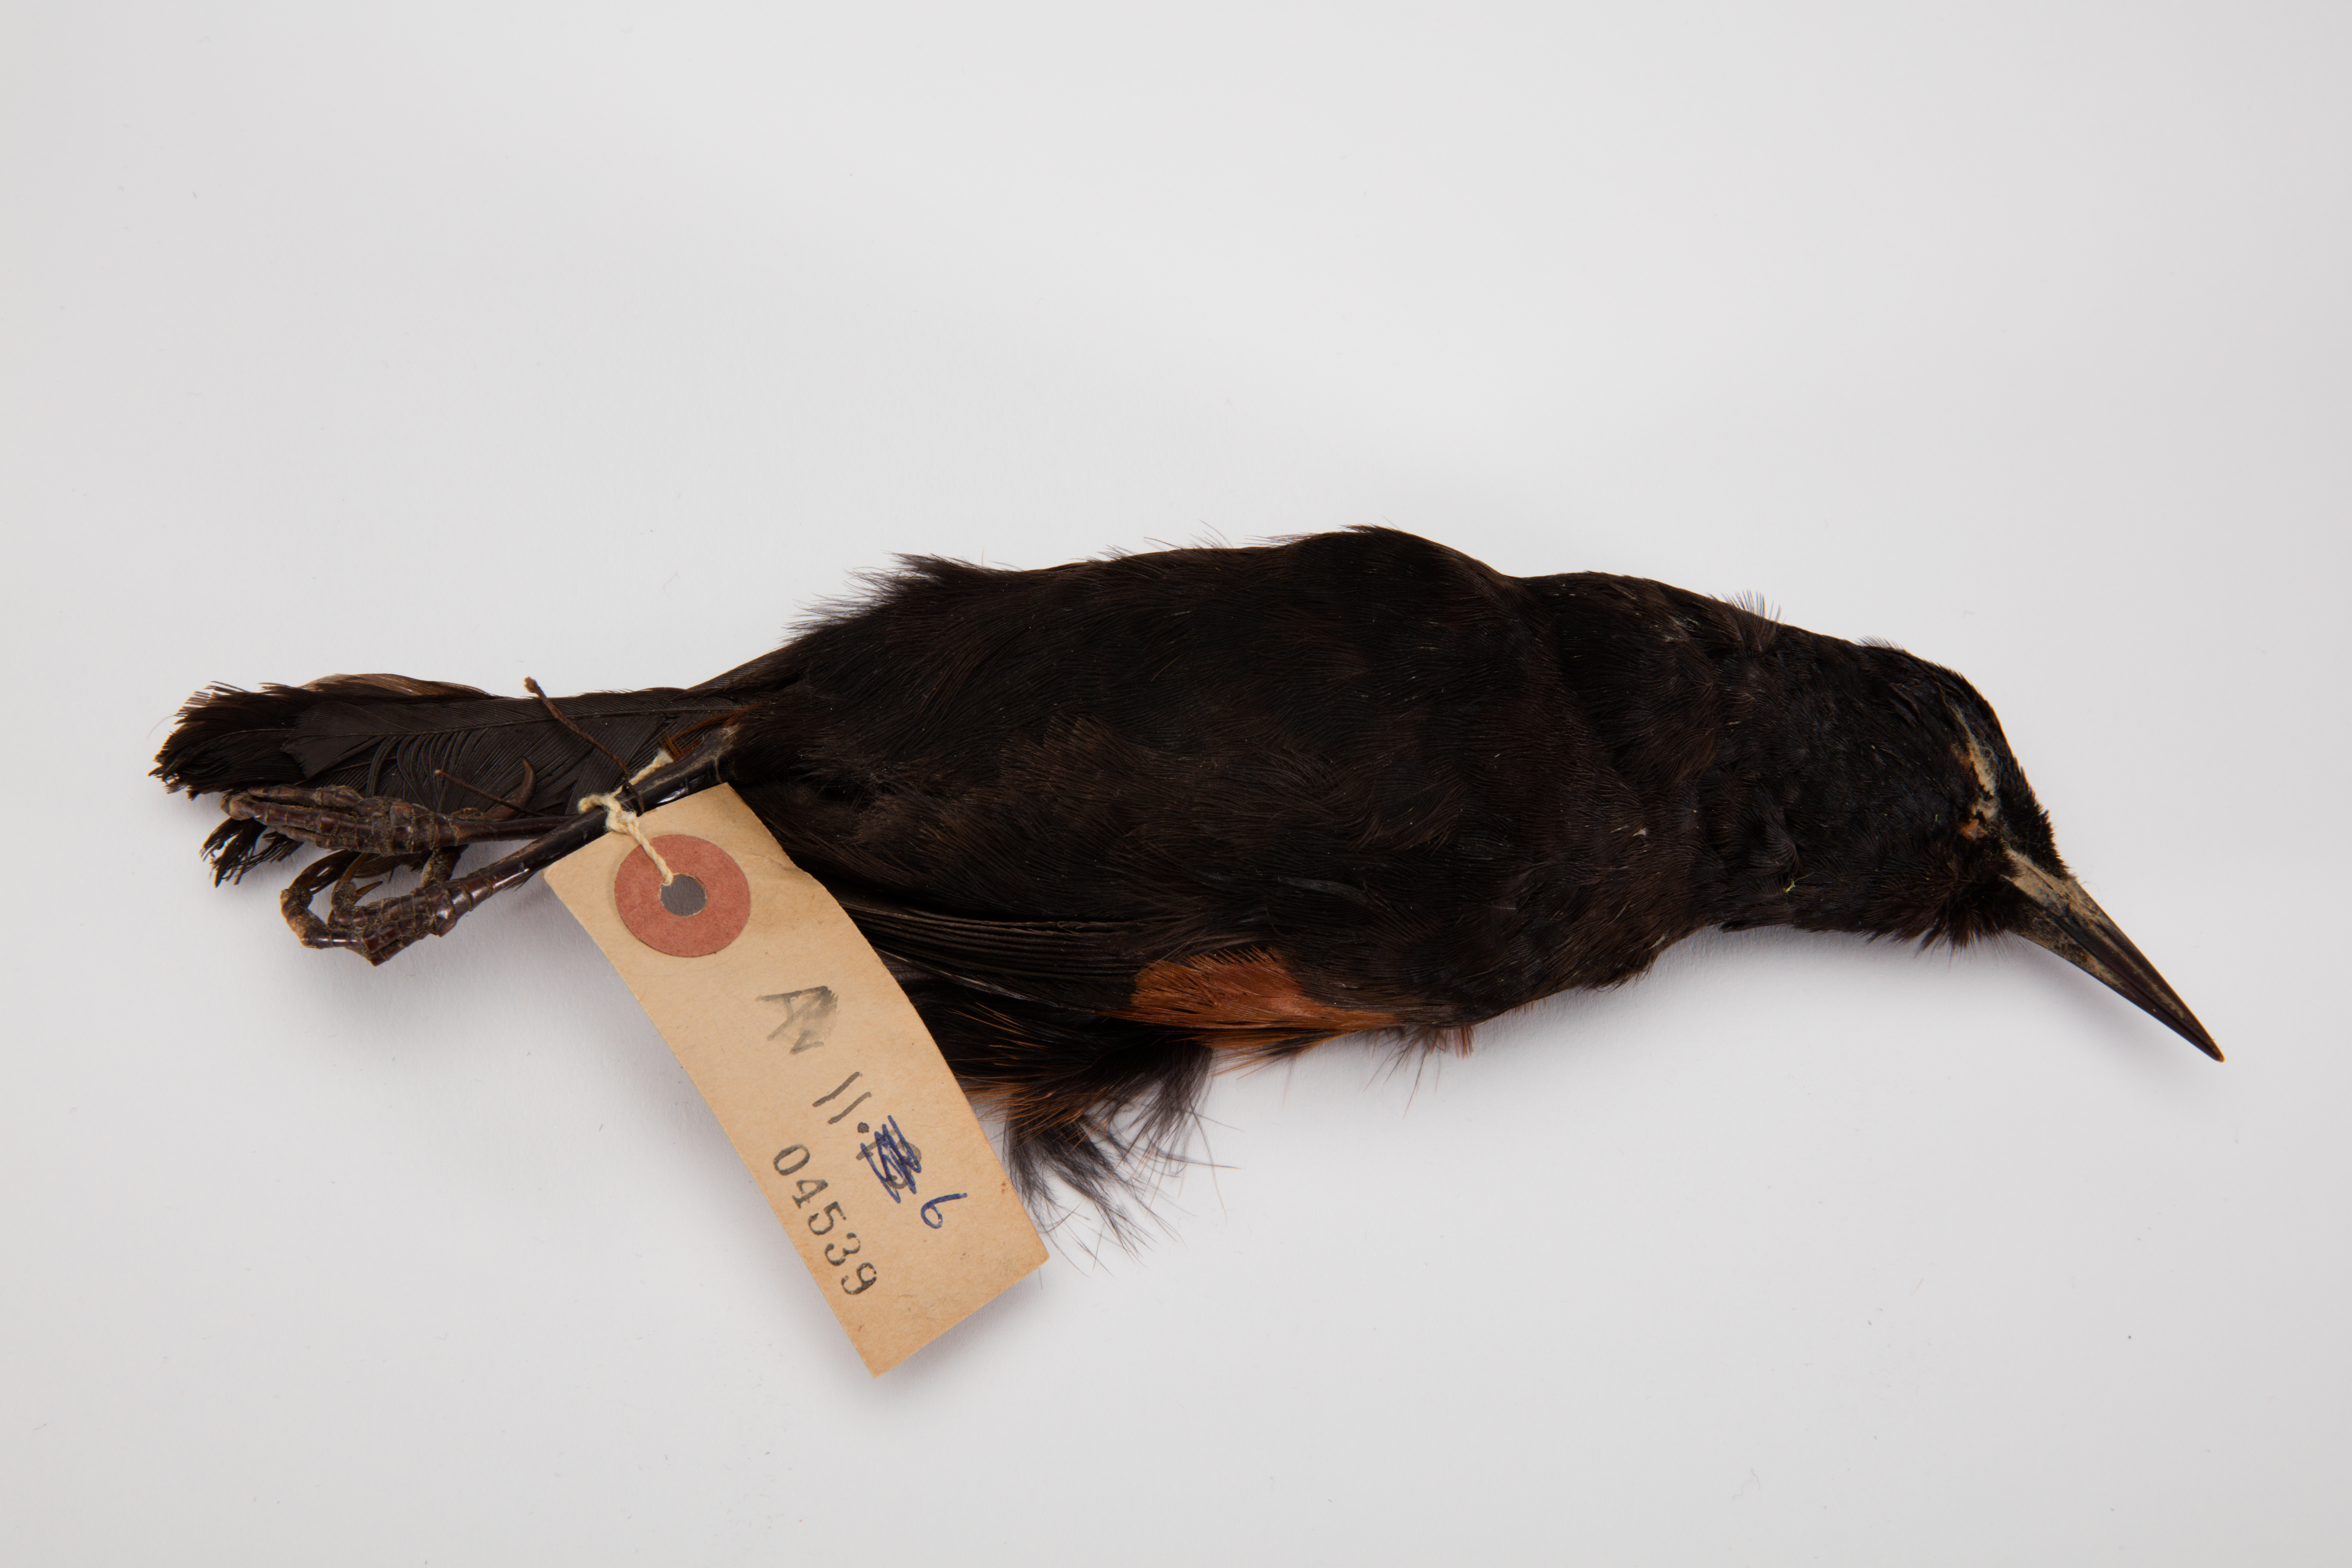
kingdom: Animalia
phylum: Chordata
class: Aves
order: Passeriformes
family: Callaeatidae
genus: Philesturnus
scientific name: Philesturnus carunculatus
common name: South island saddleback
